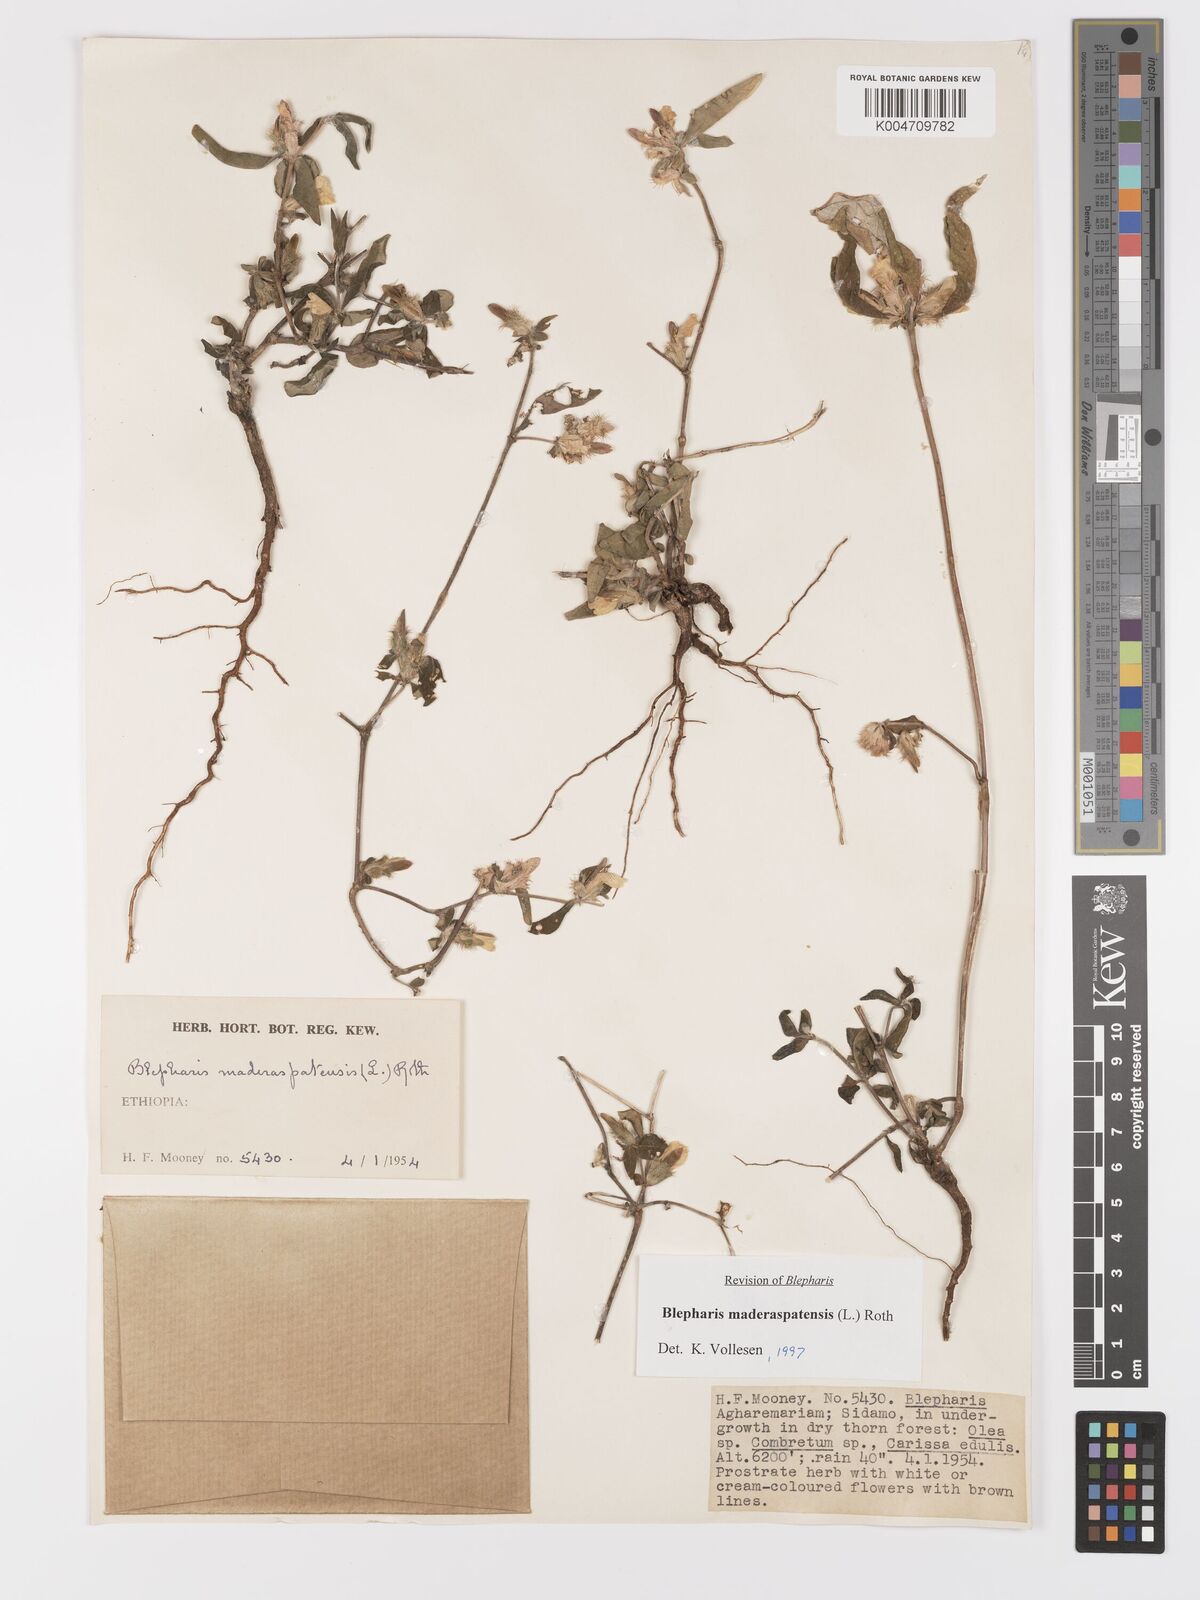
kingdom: Plantae
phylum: Tracheophyta
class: Magnoliopsida
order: Lamiales
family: Acanthaceae
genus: Blepharis
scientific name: Blepharis maderaspatensis
